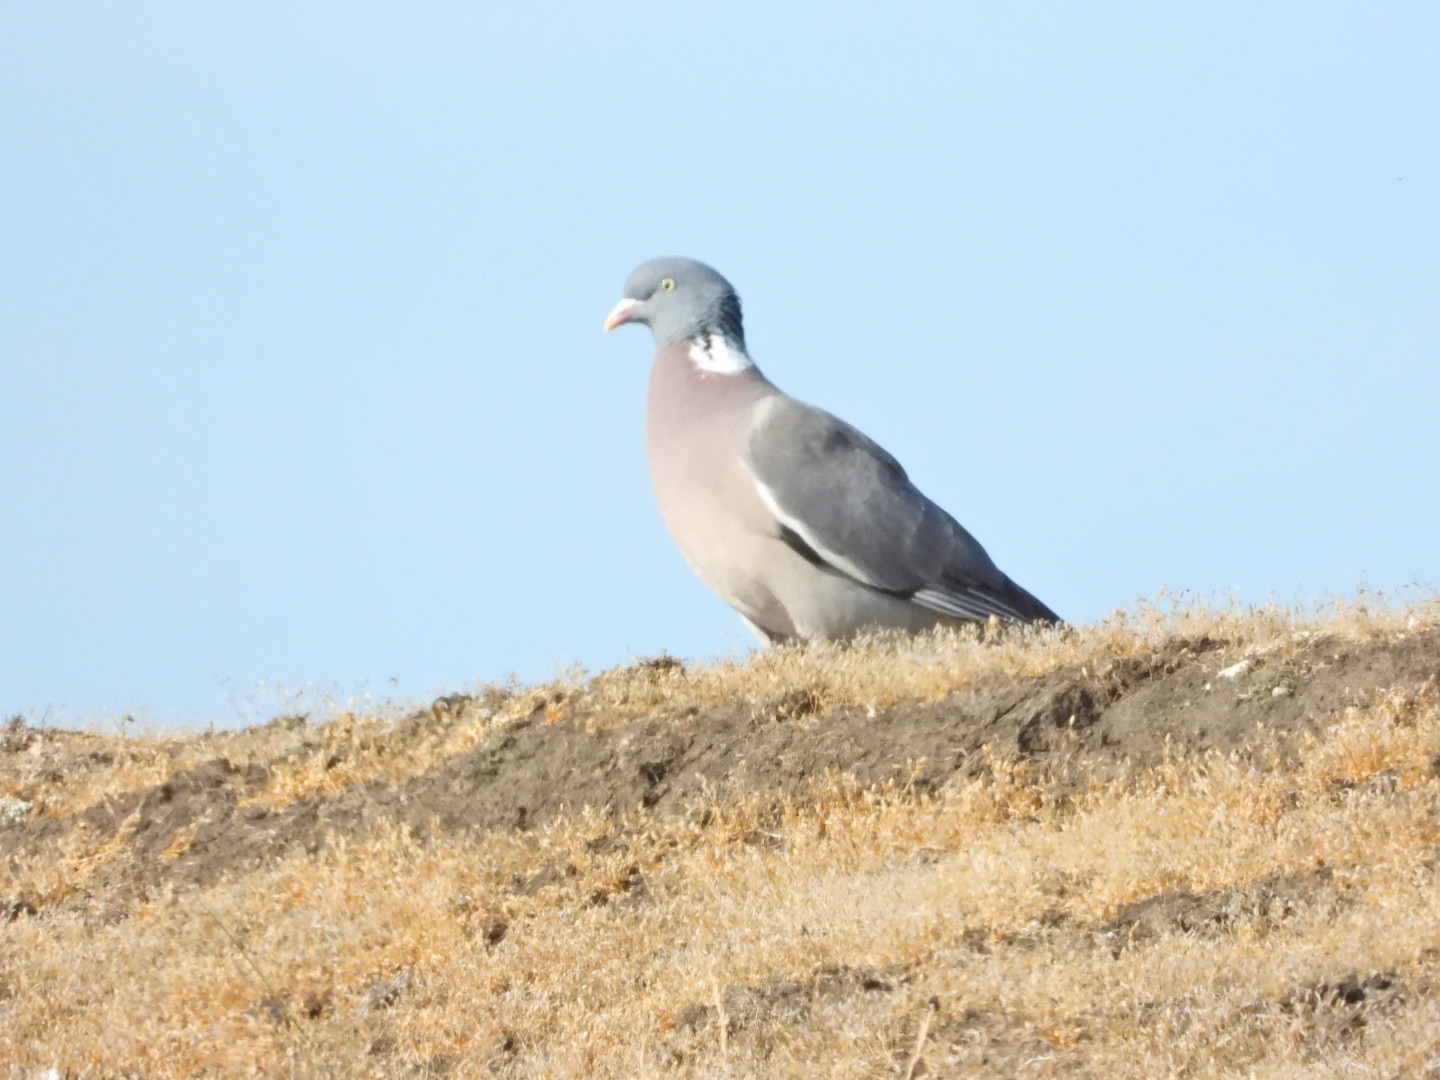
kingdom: Animalia
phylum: Chordata
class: Aves
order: Columbiformes
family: Columbidae
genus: Columba
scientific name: Columba palumbus
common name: Ringdue
